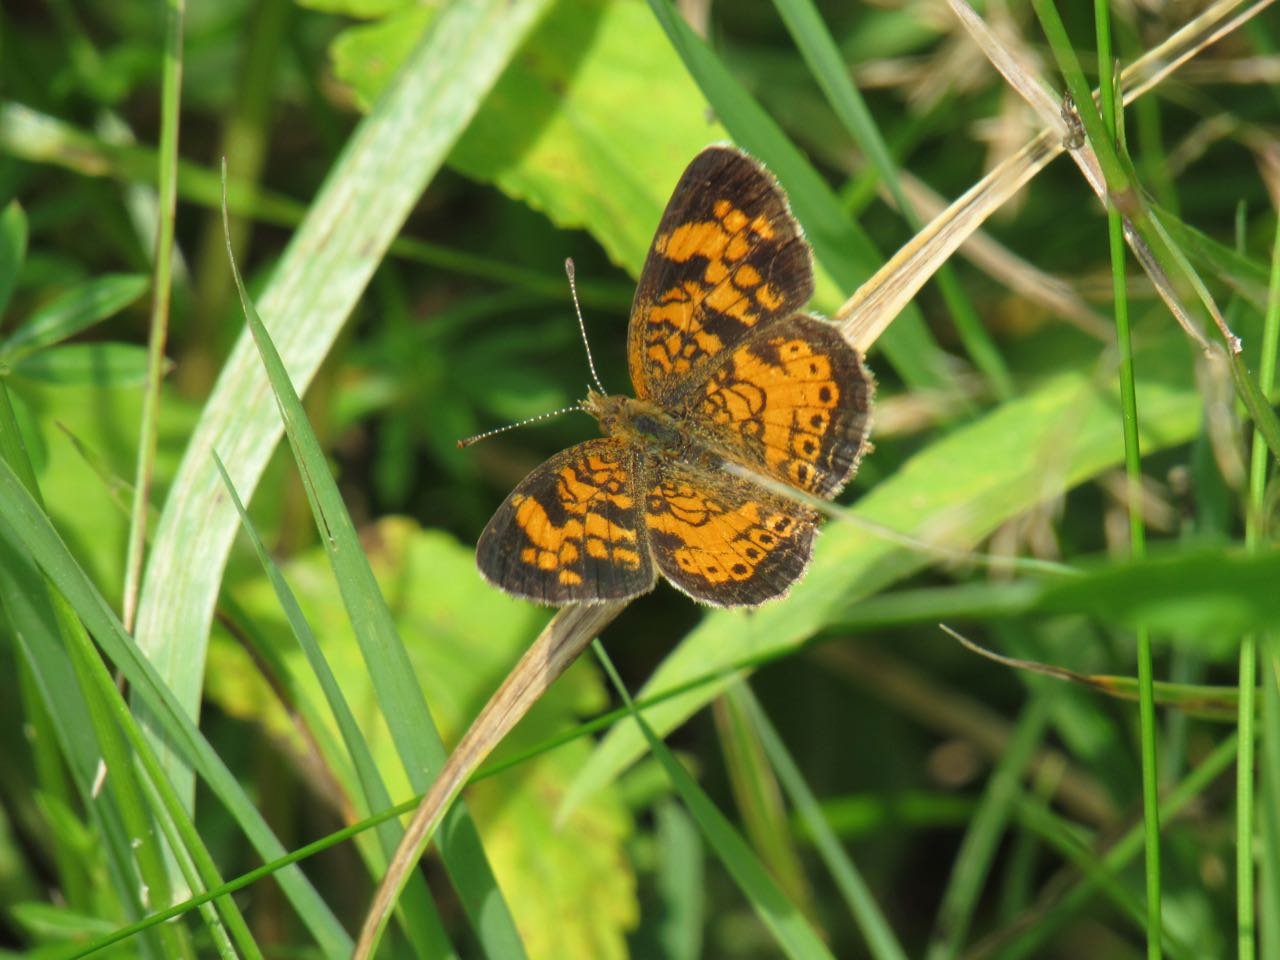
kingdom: Animalia
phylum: Arthropoda
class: Insecta
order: Lepidoptera
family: Nymphalidae
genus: Phyciodes
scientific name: Phyciodes tharos
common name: Pearl Crescent
